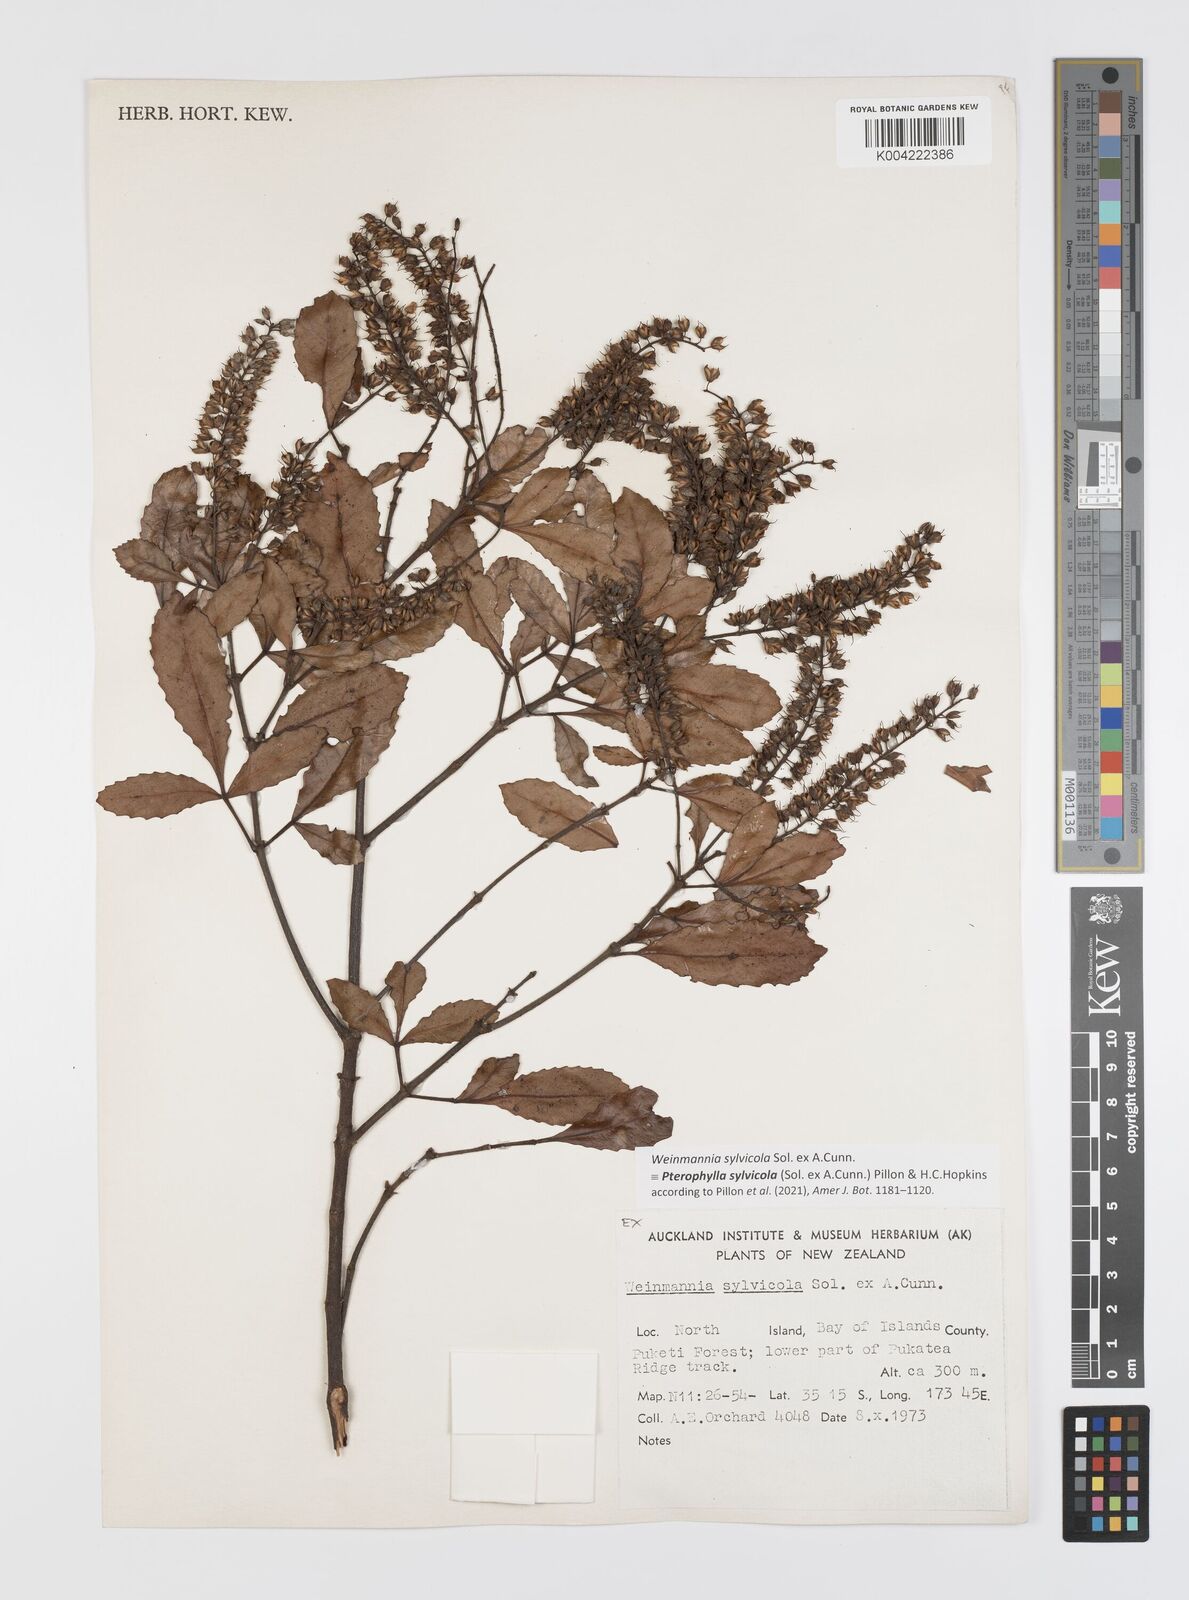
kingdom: Plantae
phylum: Tracheophyta
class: Magnoliopsida
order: Oxalidales
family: Cunoniaceae
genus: Pterophylla
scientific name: Pterophylla sylvicola
